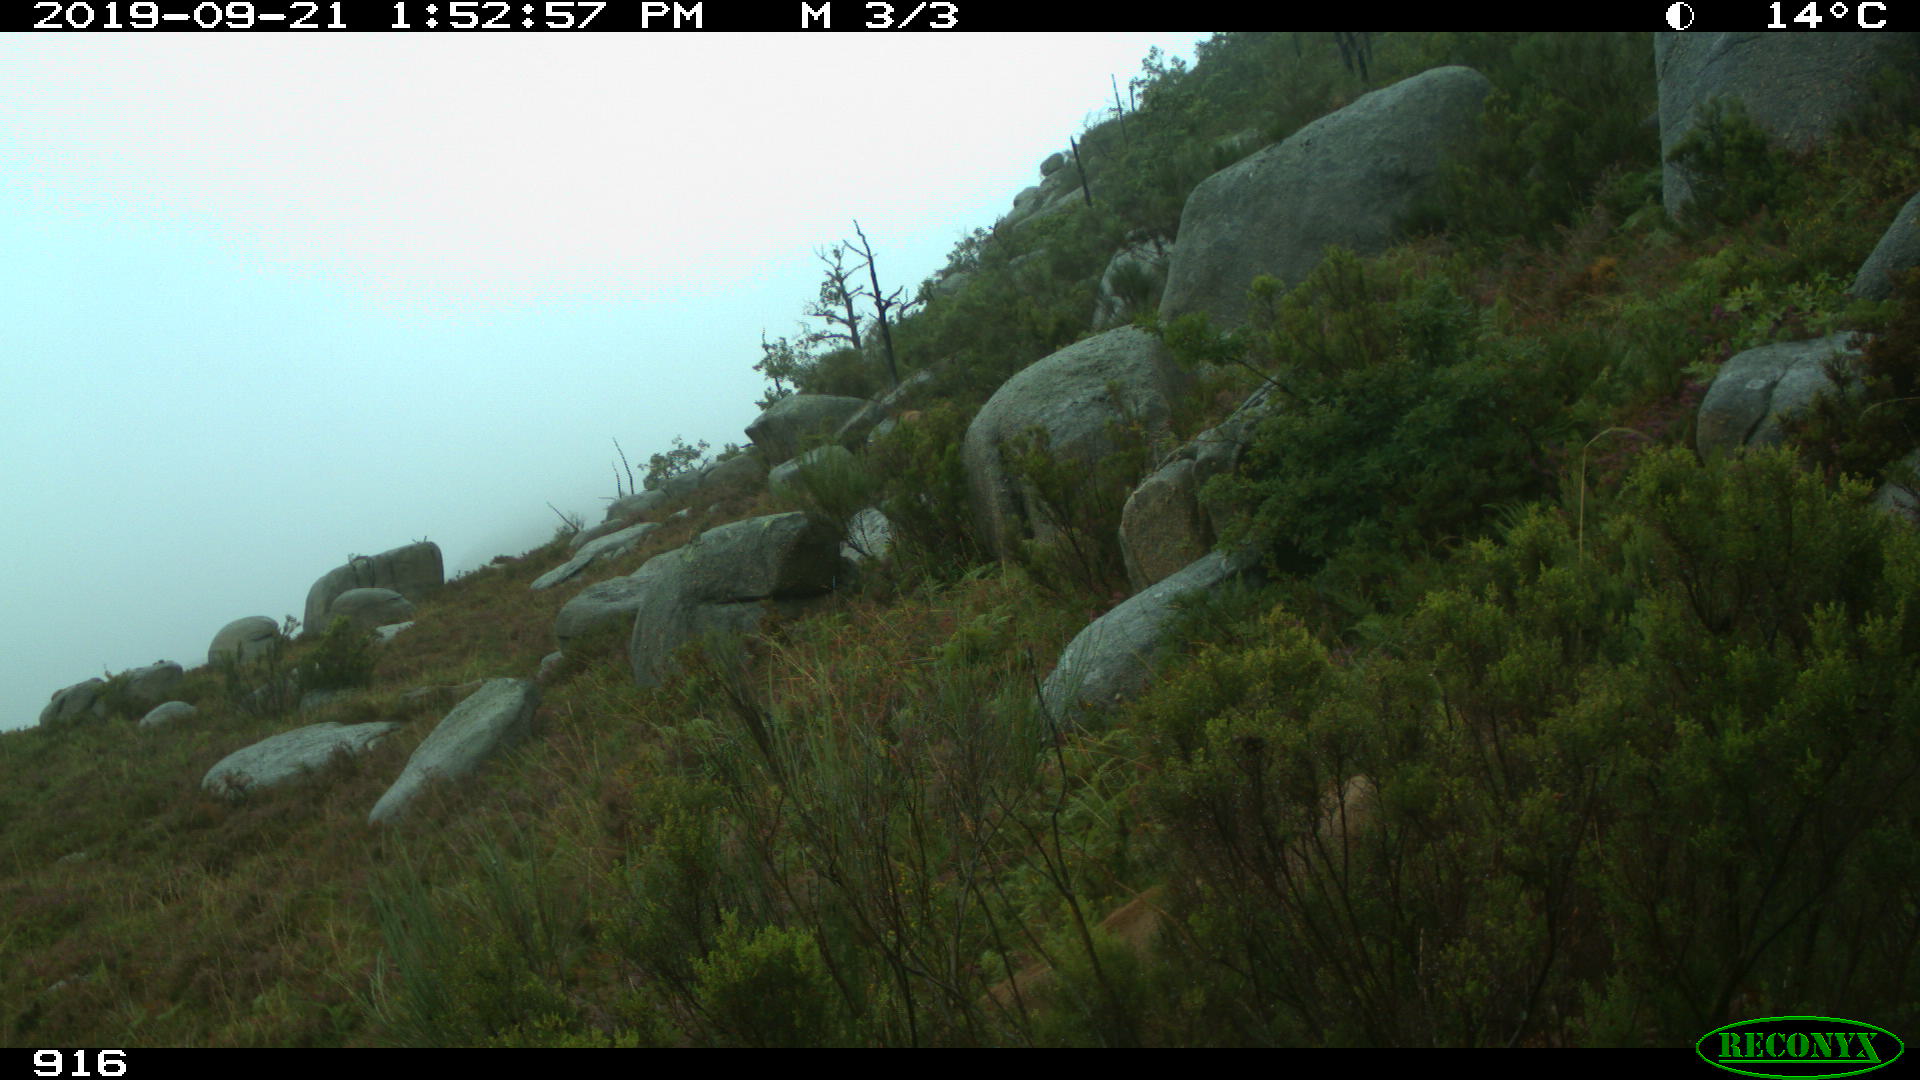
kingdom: Animalia
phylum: Chordata
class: Mammalia
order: Artiodactyla
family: Bovidae
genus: Bos
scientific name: Bos taurus
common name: Domesticated cattle
